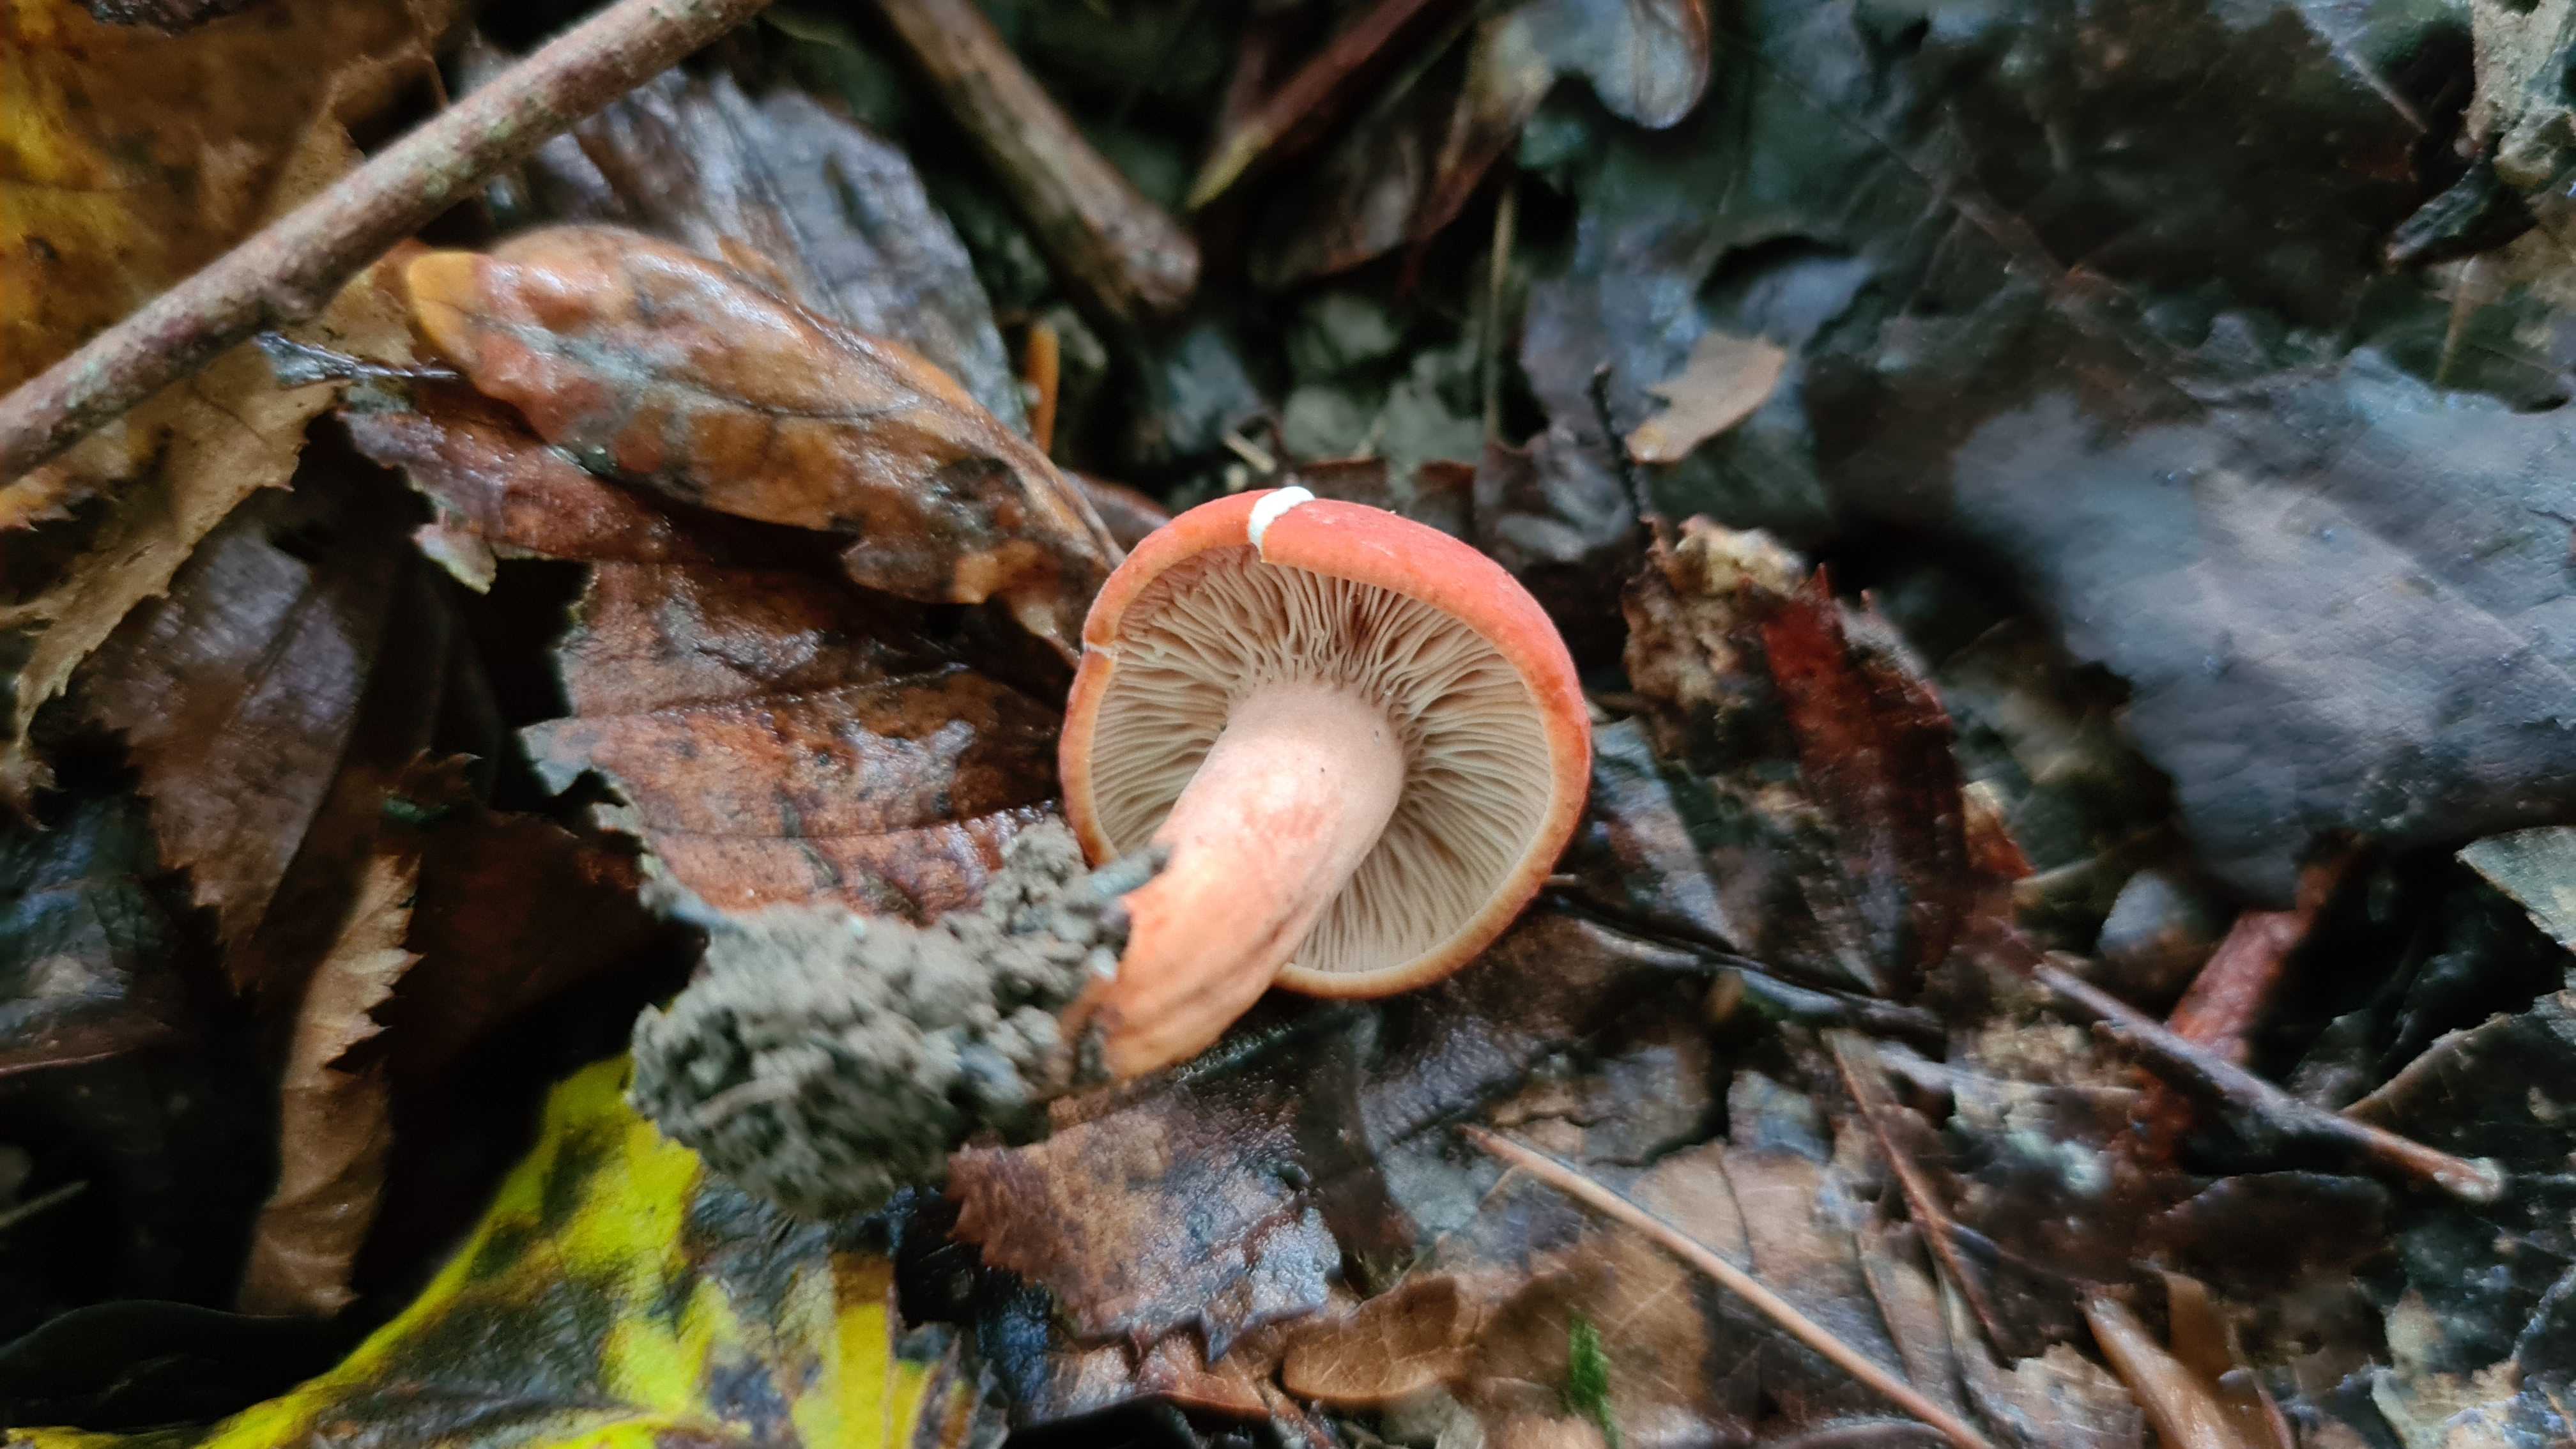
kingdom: Fungi
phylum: Basidiomycota
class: Agaricomycetes
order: Russulales
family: Russulaceae
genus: Lactarius
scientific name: Lactarius fulvissimus
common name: ræve-mælkehat
